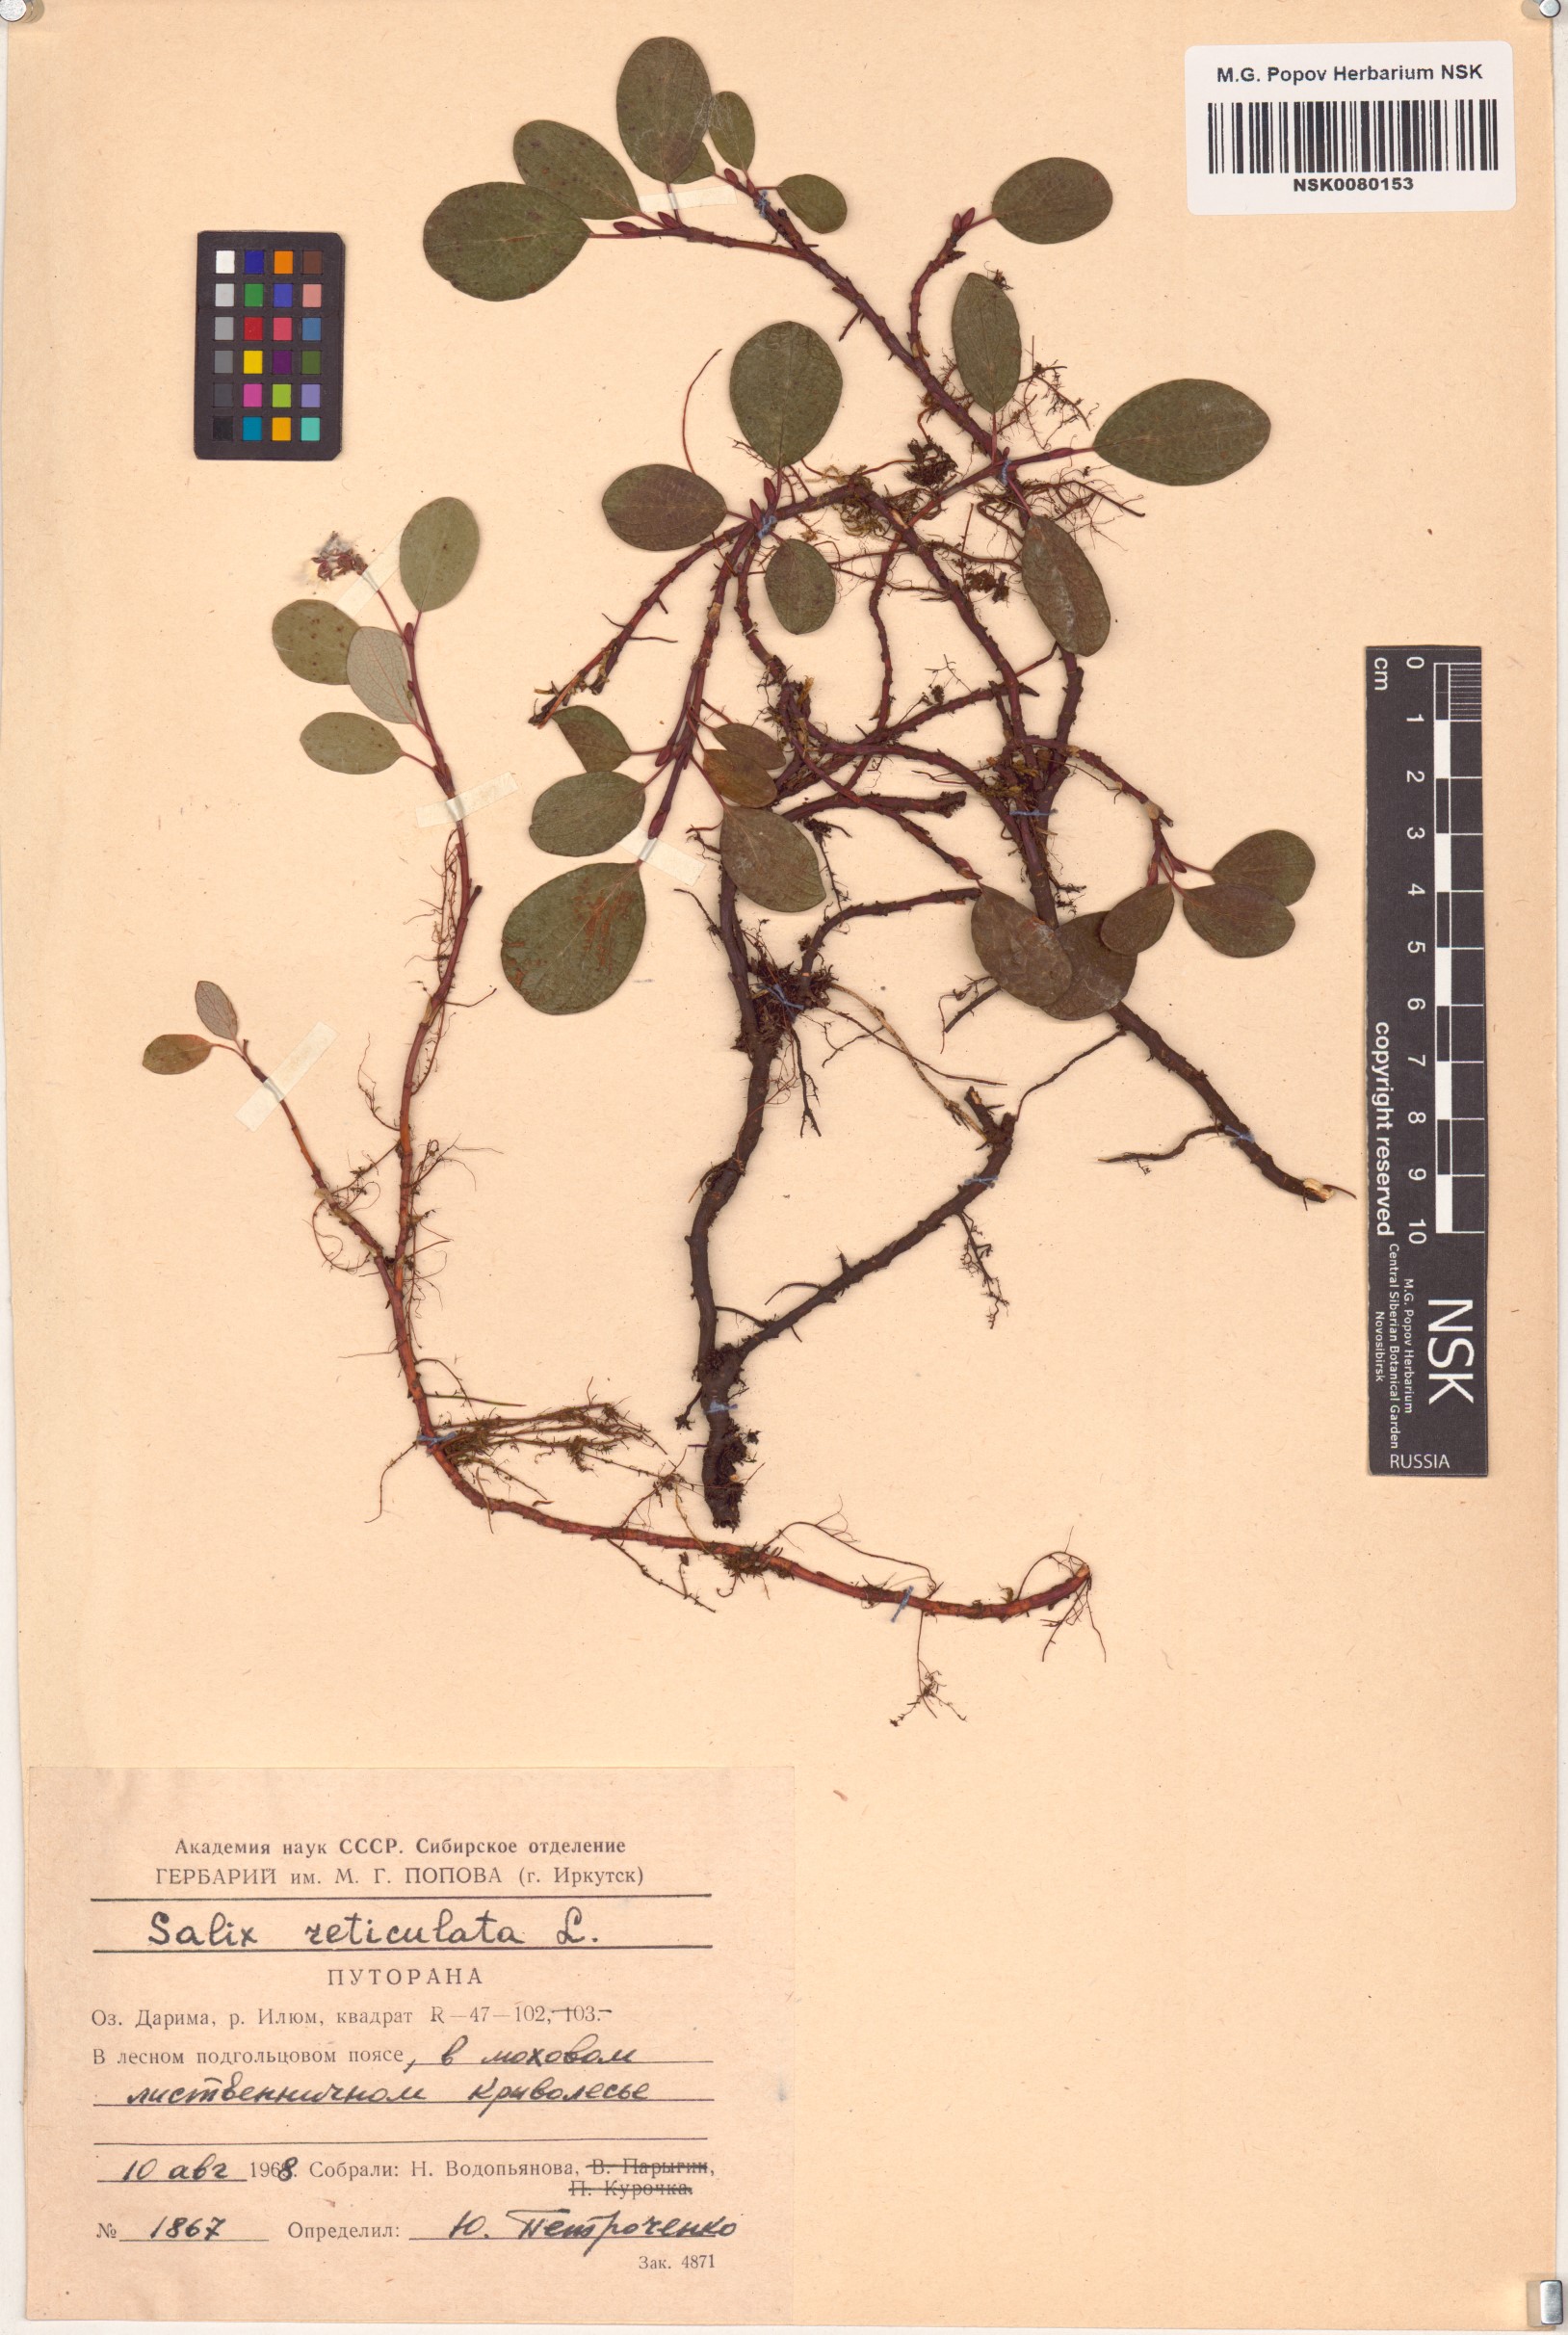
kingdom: Plantae
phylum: Tracheophyta
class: Magnoliopsida
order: Malpighiales
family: Salicaceae
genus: Salix
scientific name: Salix reticulata
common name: Net-leaved willow
